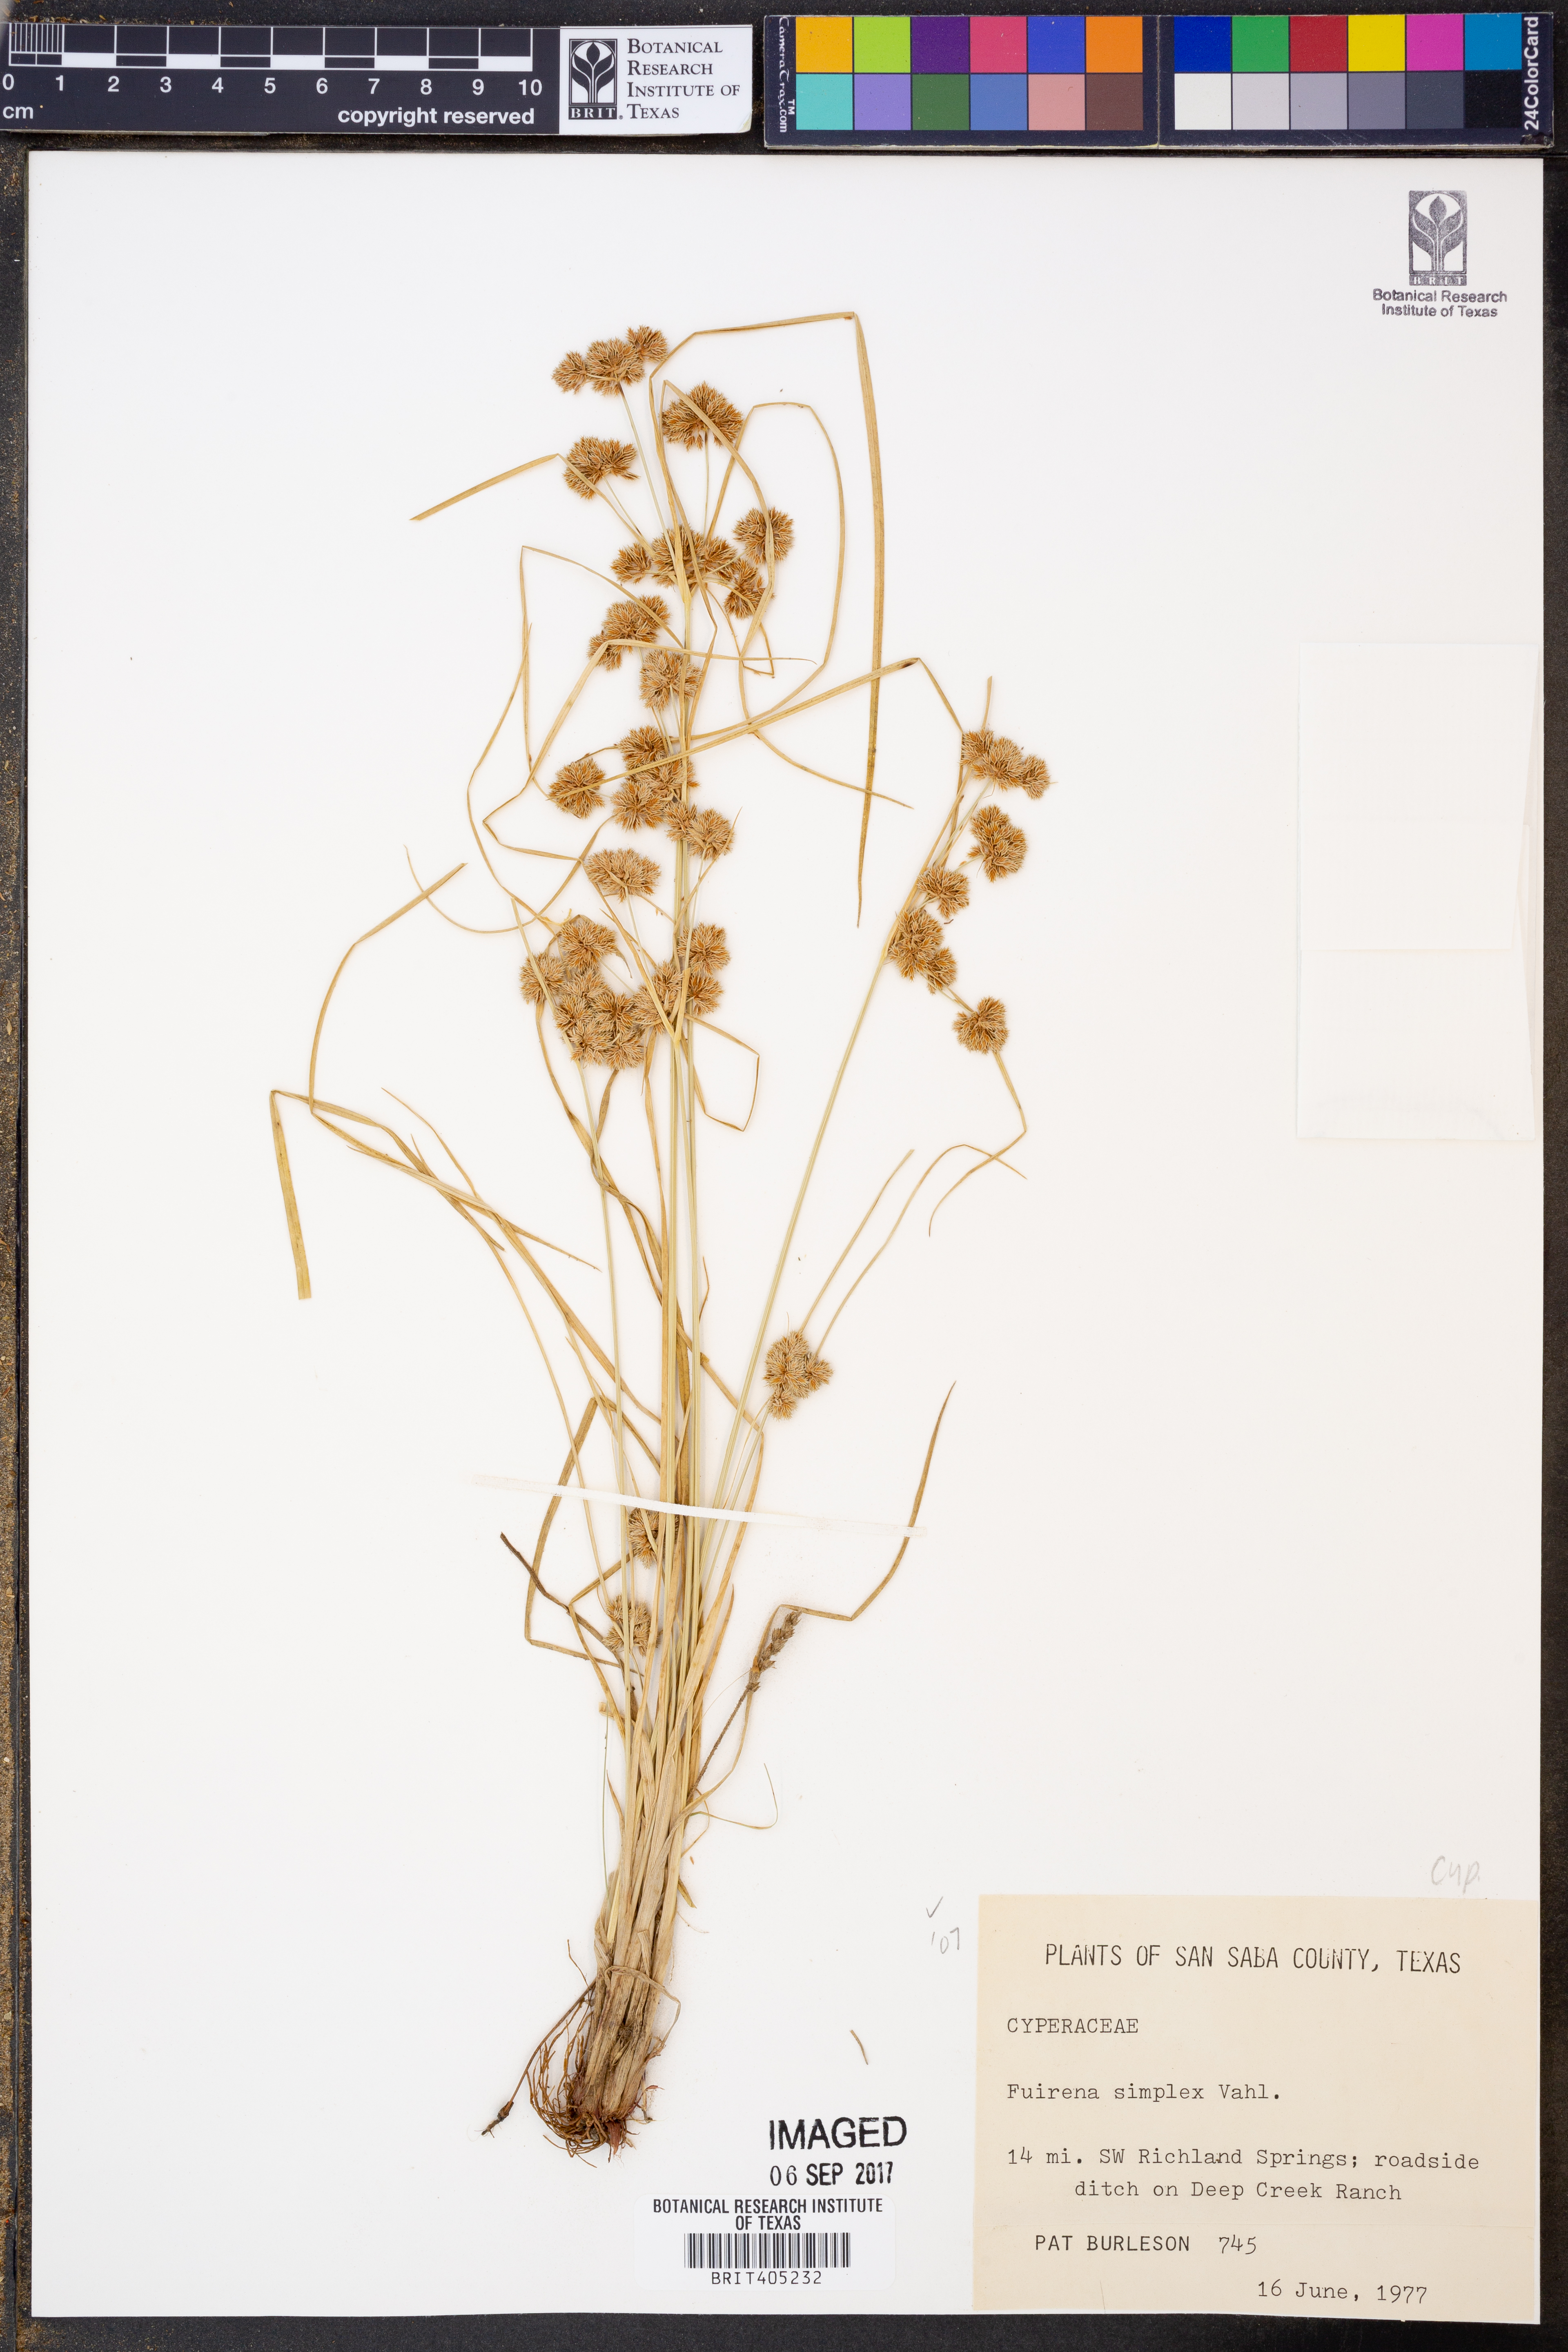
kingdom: Plantae
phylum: Tracheophyta
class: Liliopsida
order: Poales
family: Cyperaceae
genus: Fuirena
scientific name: Fuirena simplex
